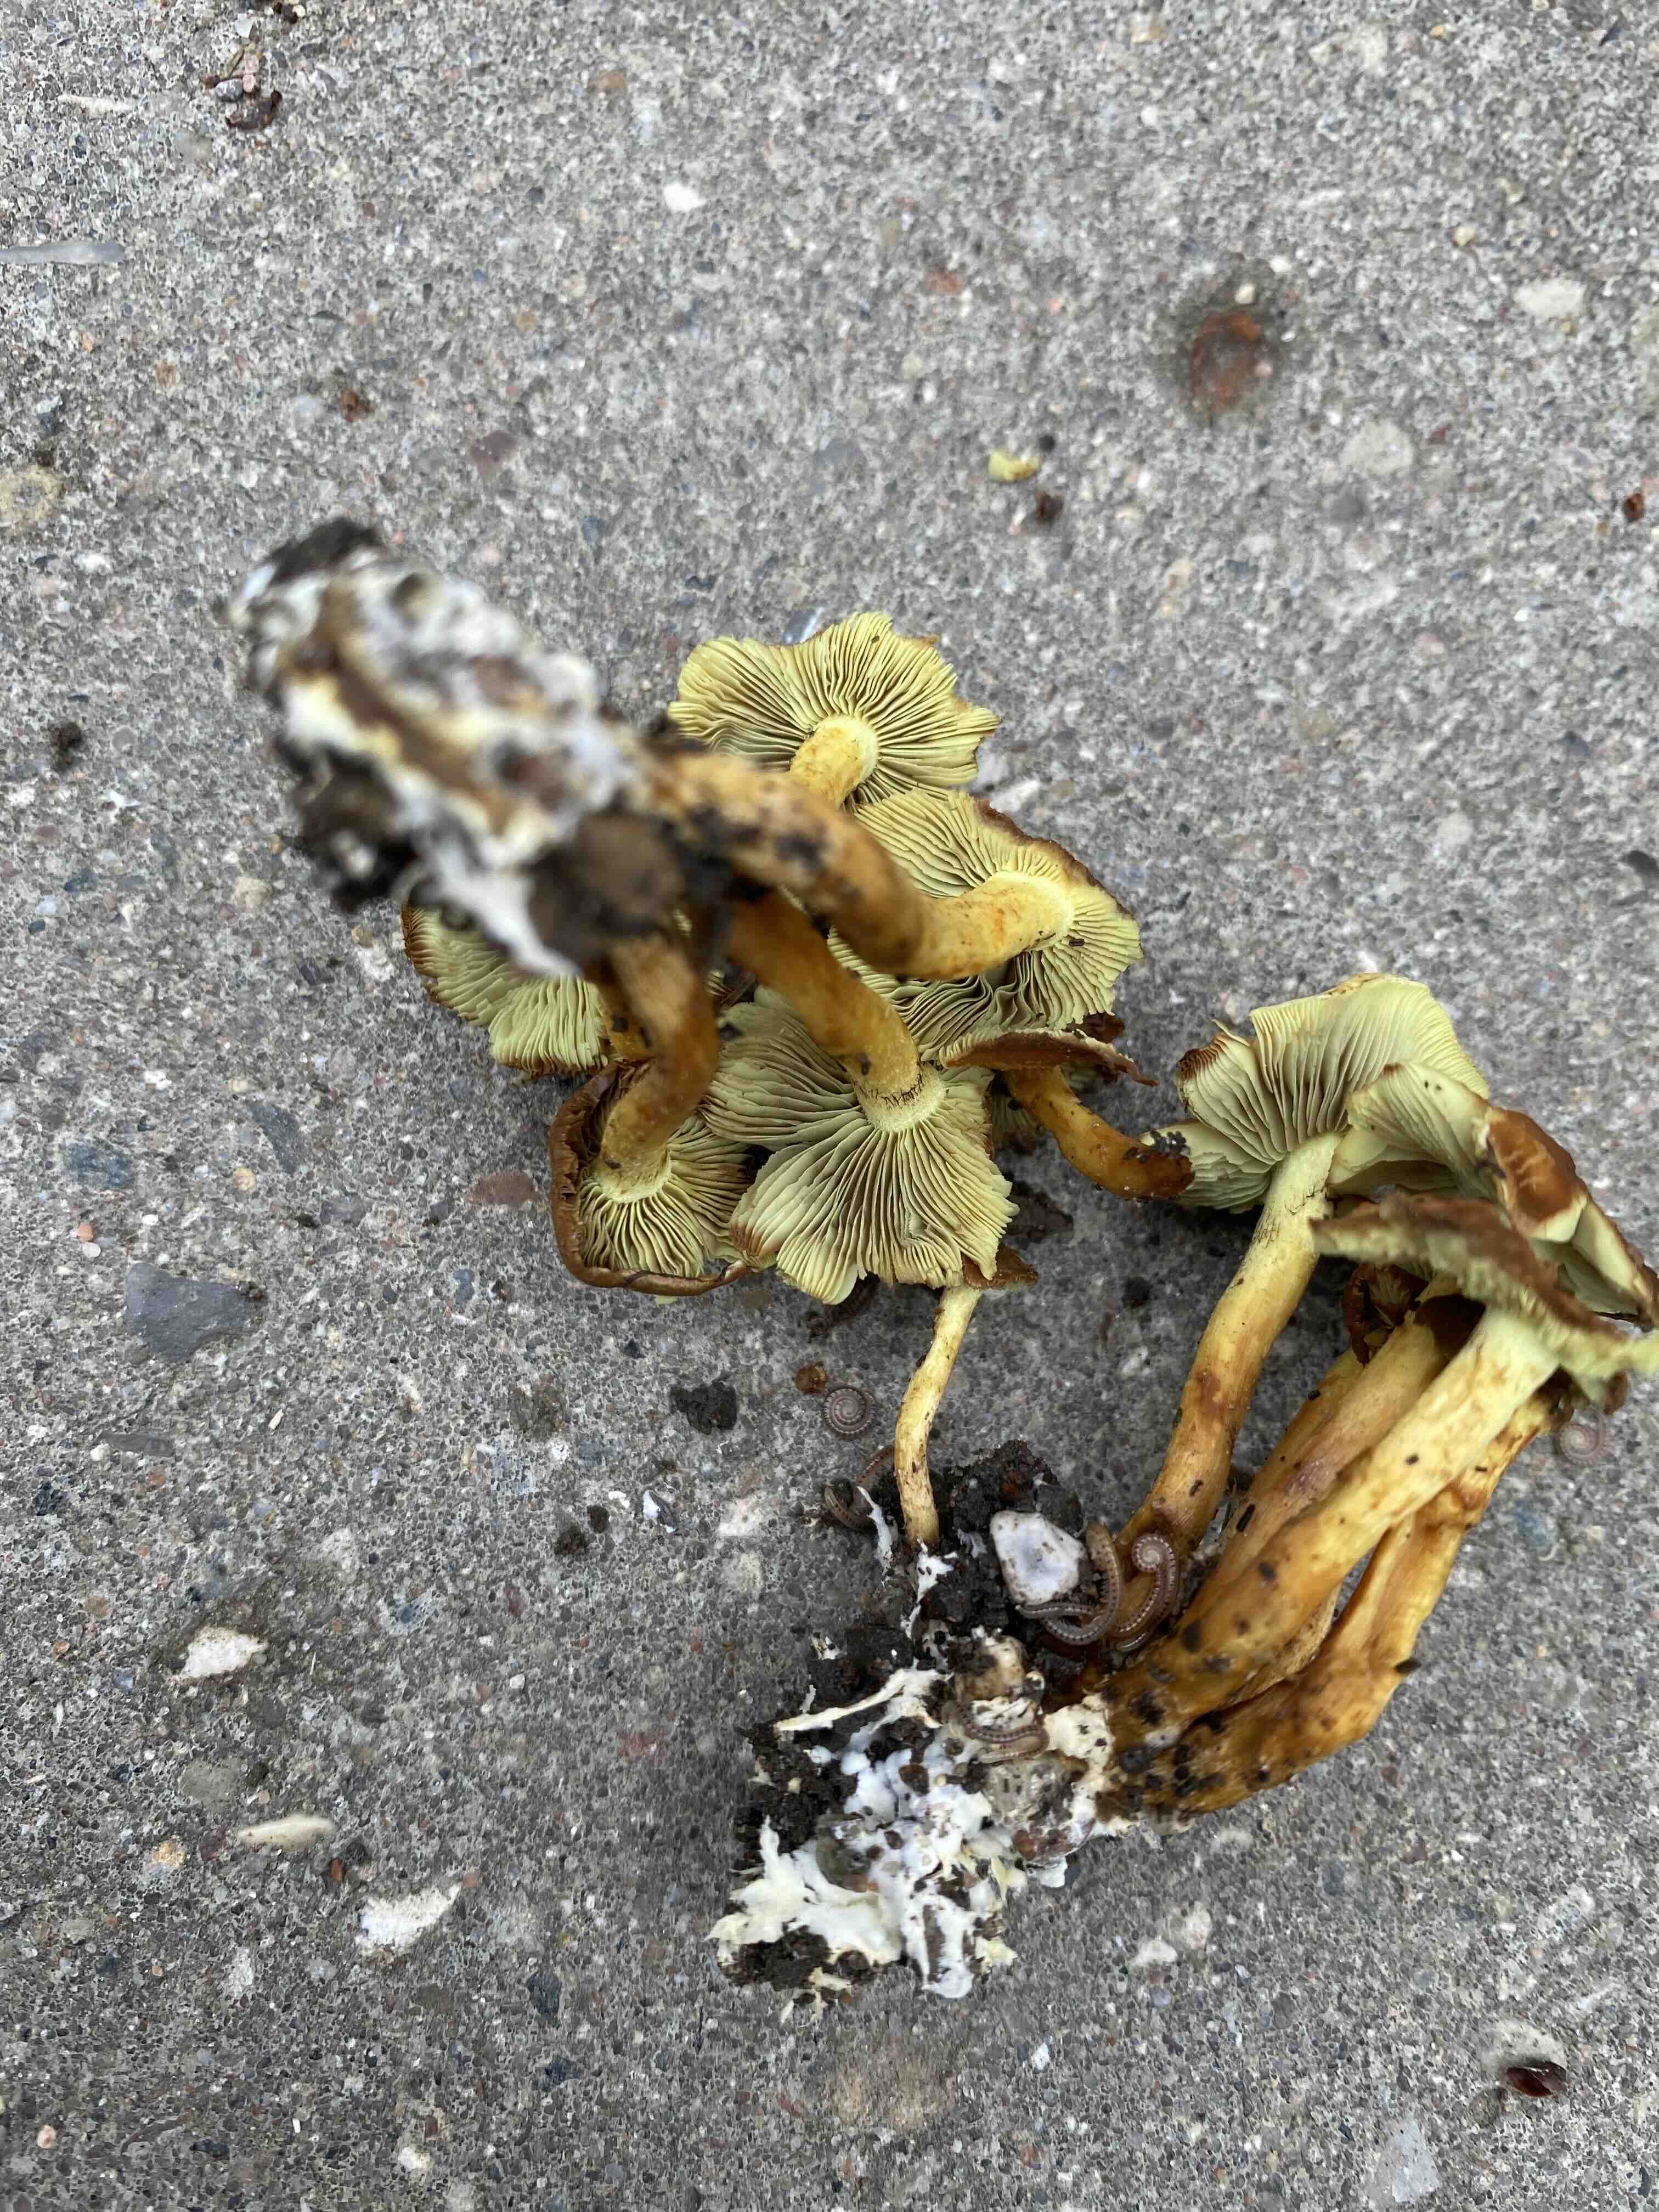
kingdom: Fungi
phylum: Basidiomycota
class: Agaricomycetes
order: Agaricales
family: Strophariaceae
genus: Hypholoma
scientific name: Hypholoma fasciculare
